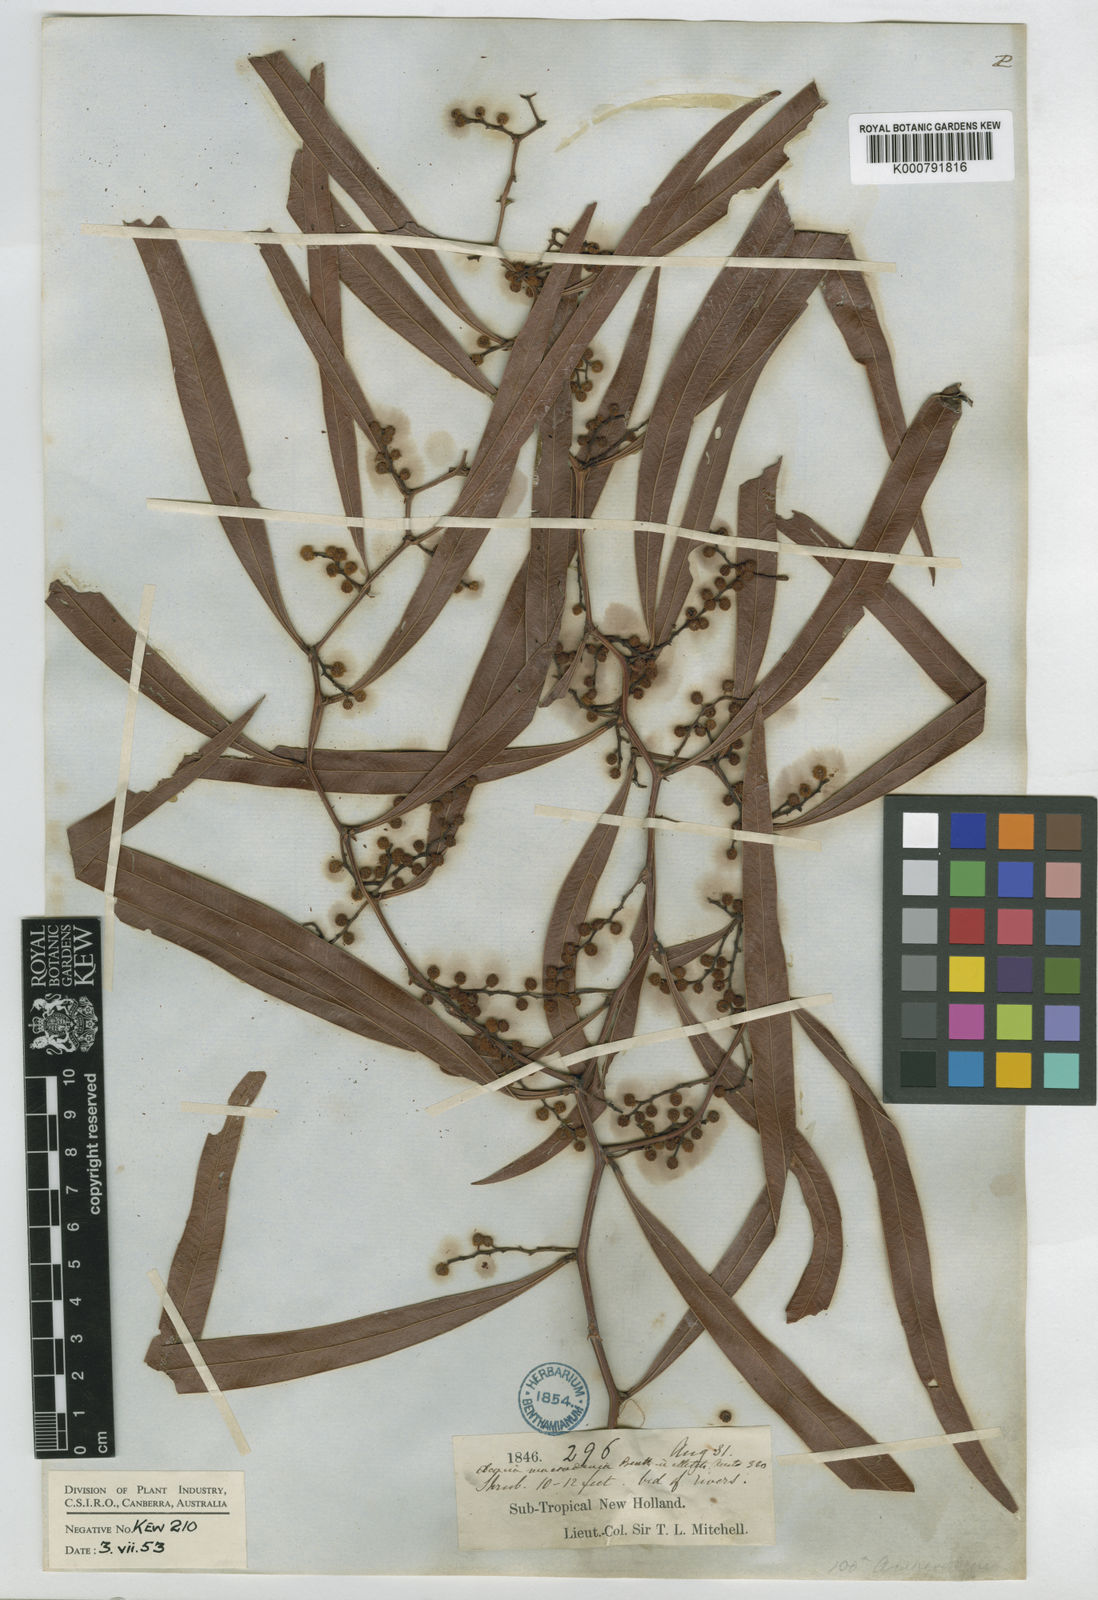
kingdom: Plantae
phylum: Tracheophyta
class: Magnoliopsida
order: Fabales
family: Fabaceae
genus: Acacia
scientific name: Acacia macradenia
